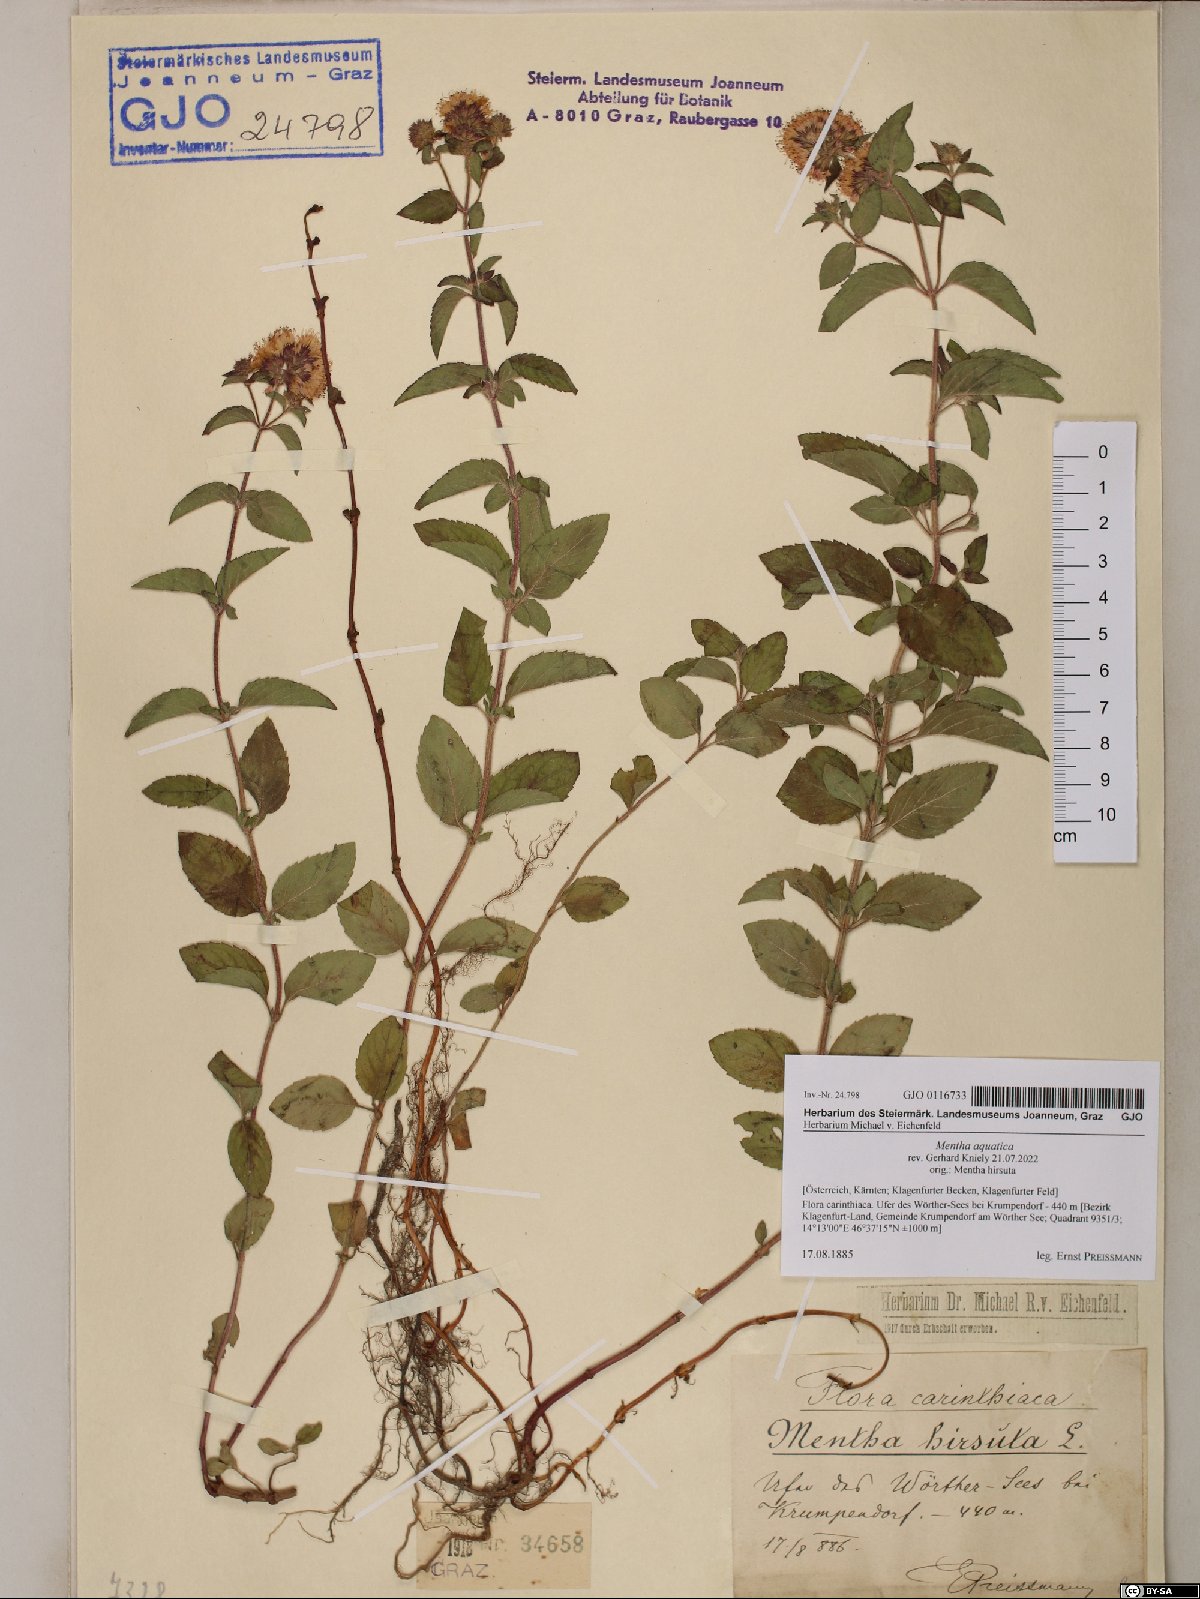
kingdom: Plantae
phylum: Tracheophyta
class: Magnoliopsida
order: Lamiales
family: Lamiaceae
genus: Mentha
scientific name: Mentha aquatica
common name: Water mint
